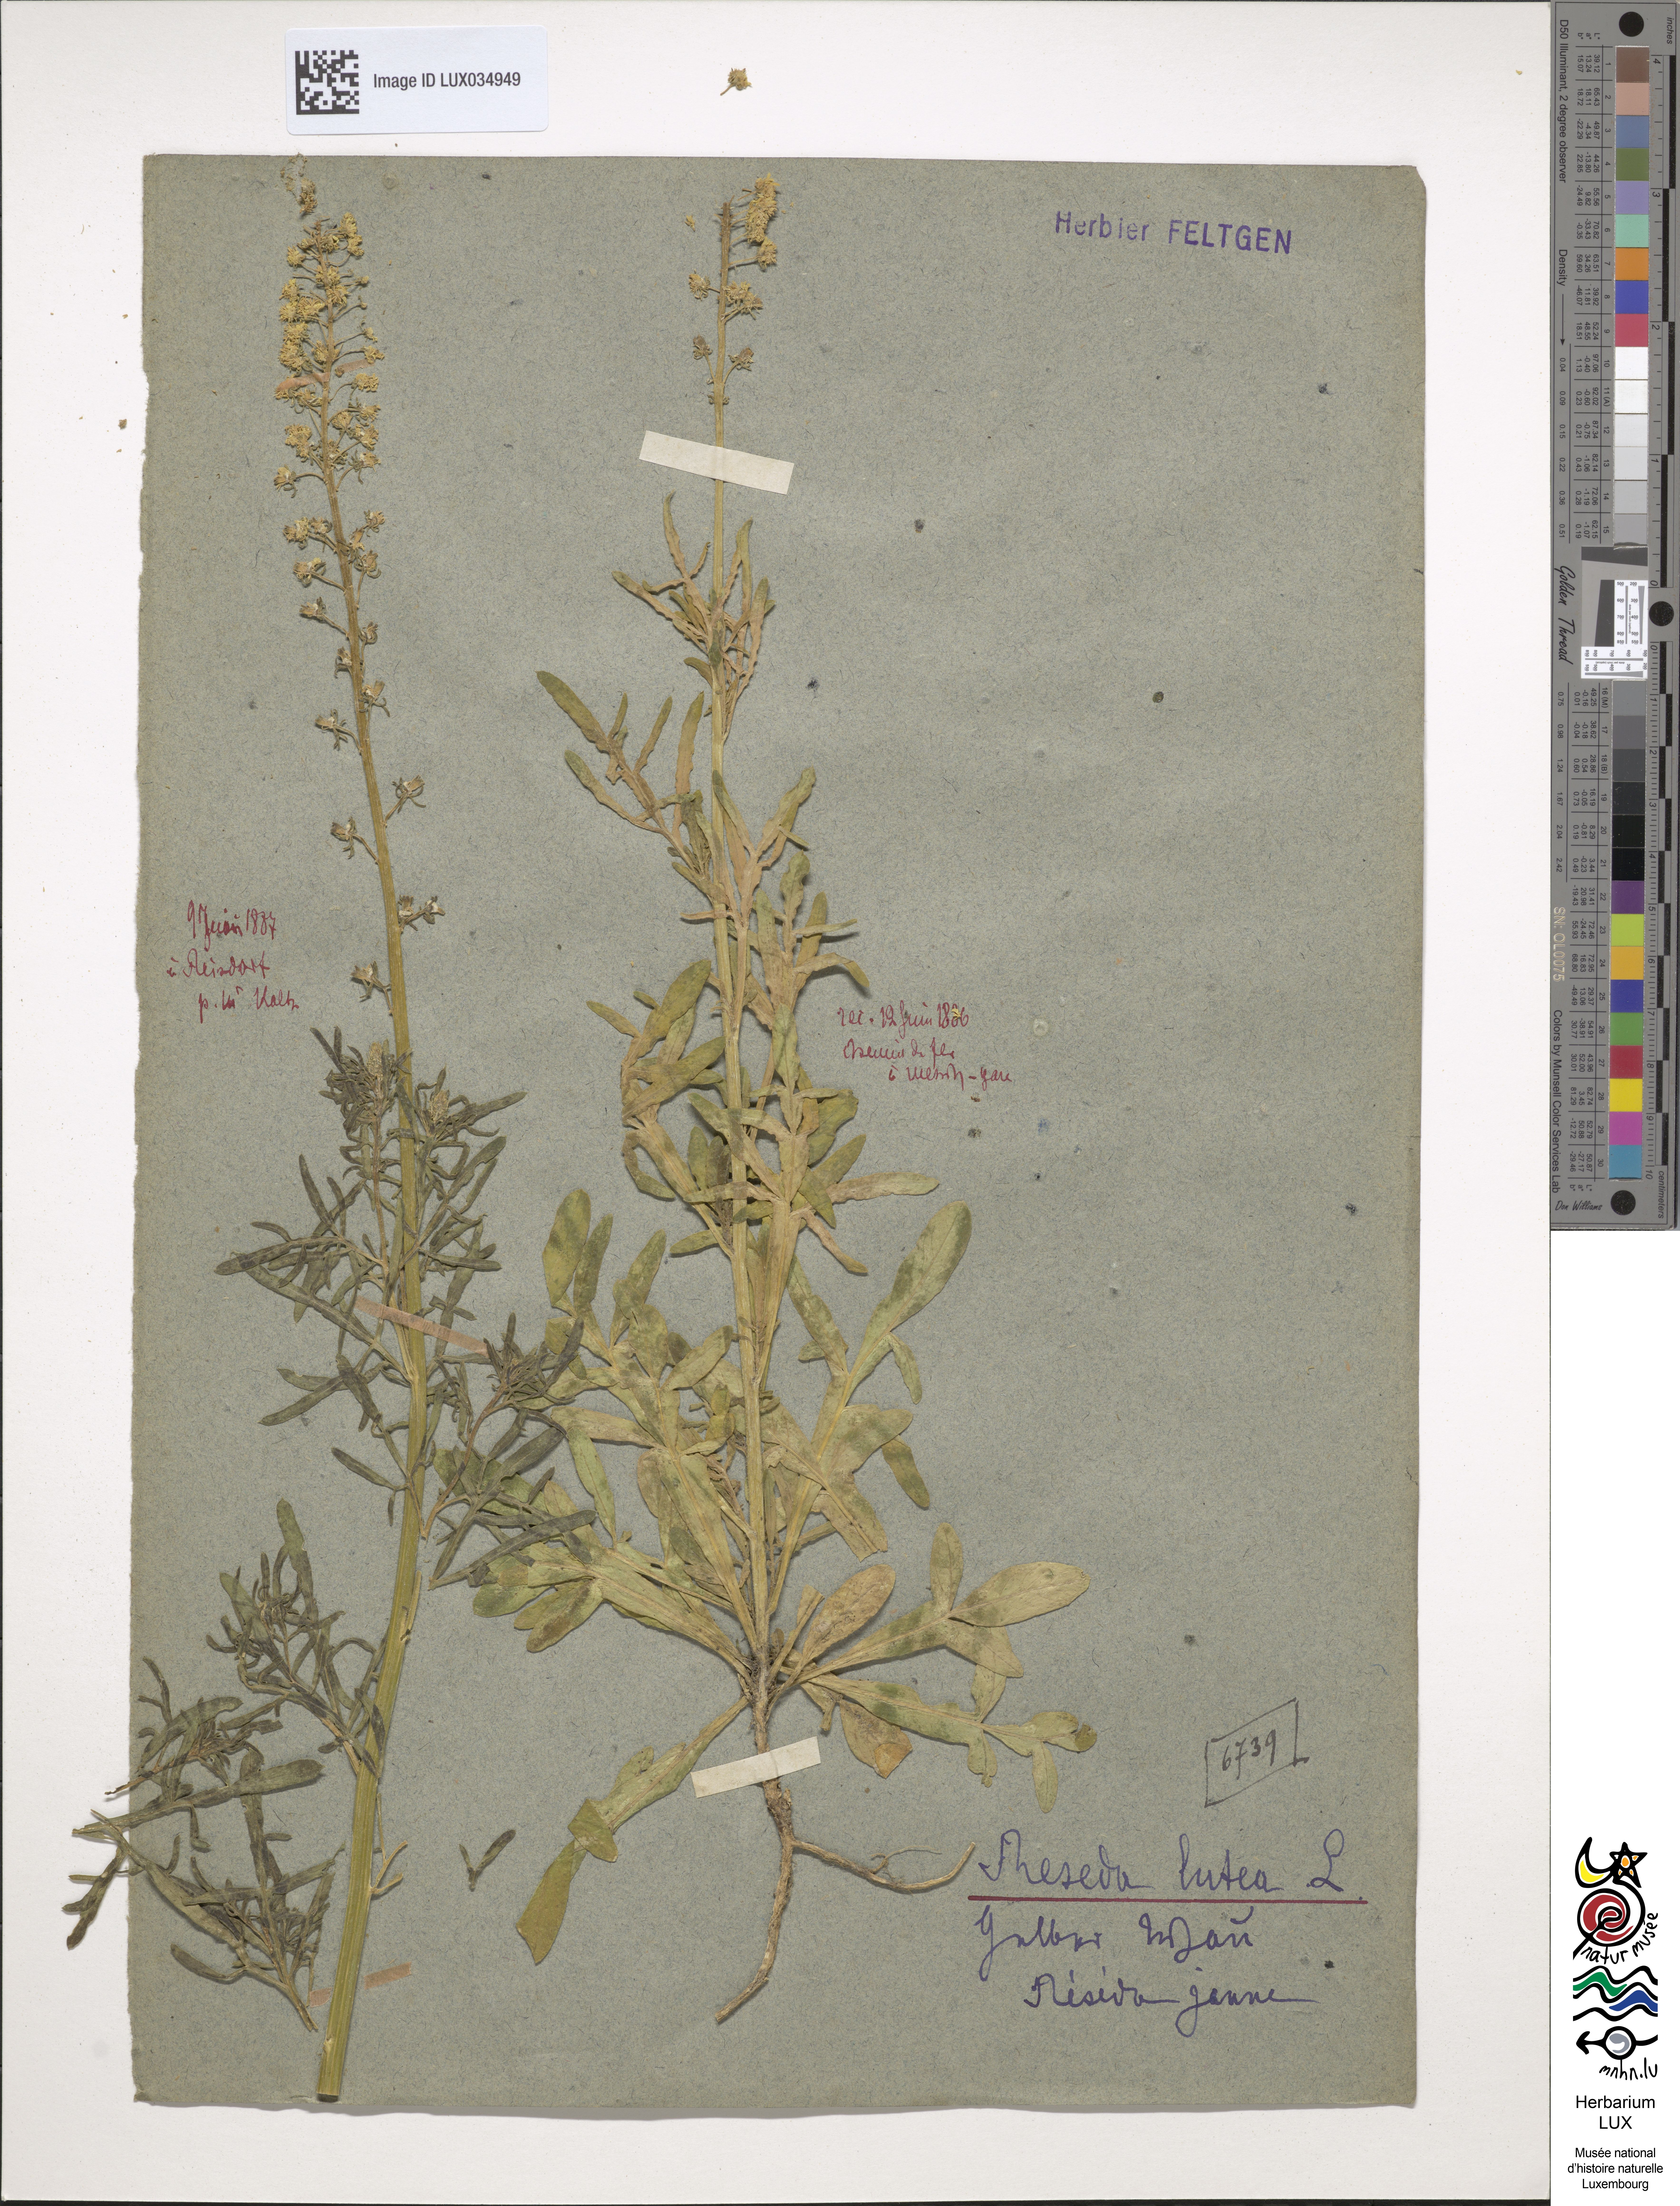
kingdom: Plantae
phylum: Tracheophyta
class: Magnoliopsida
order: Brassicales
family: Resedaceae
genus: Reseda
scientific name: Reseda lutea
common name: Wild mignonette
